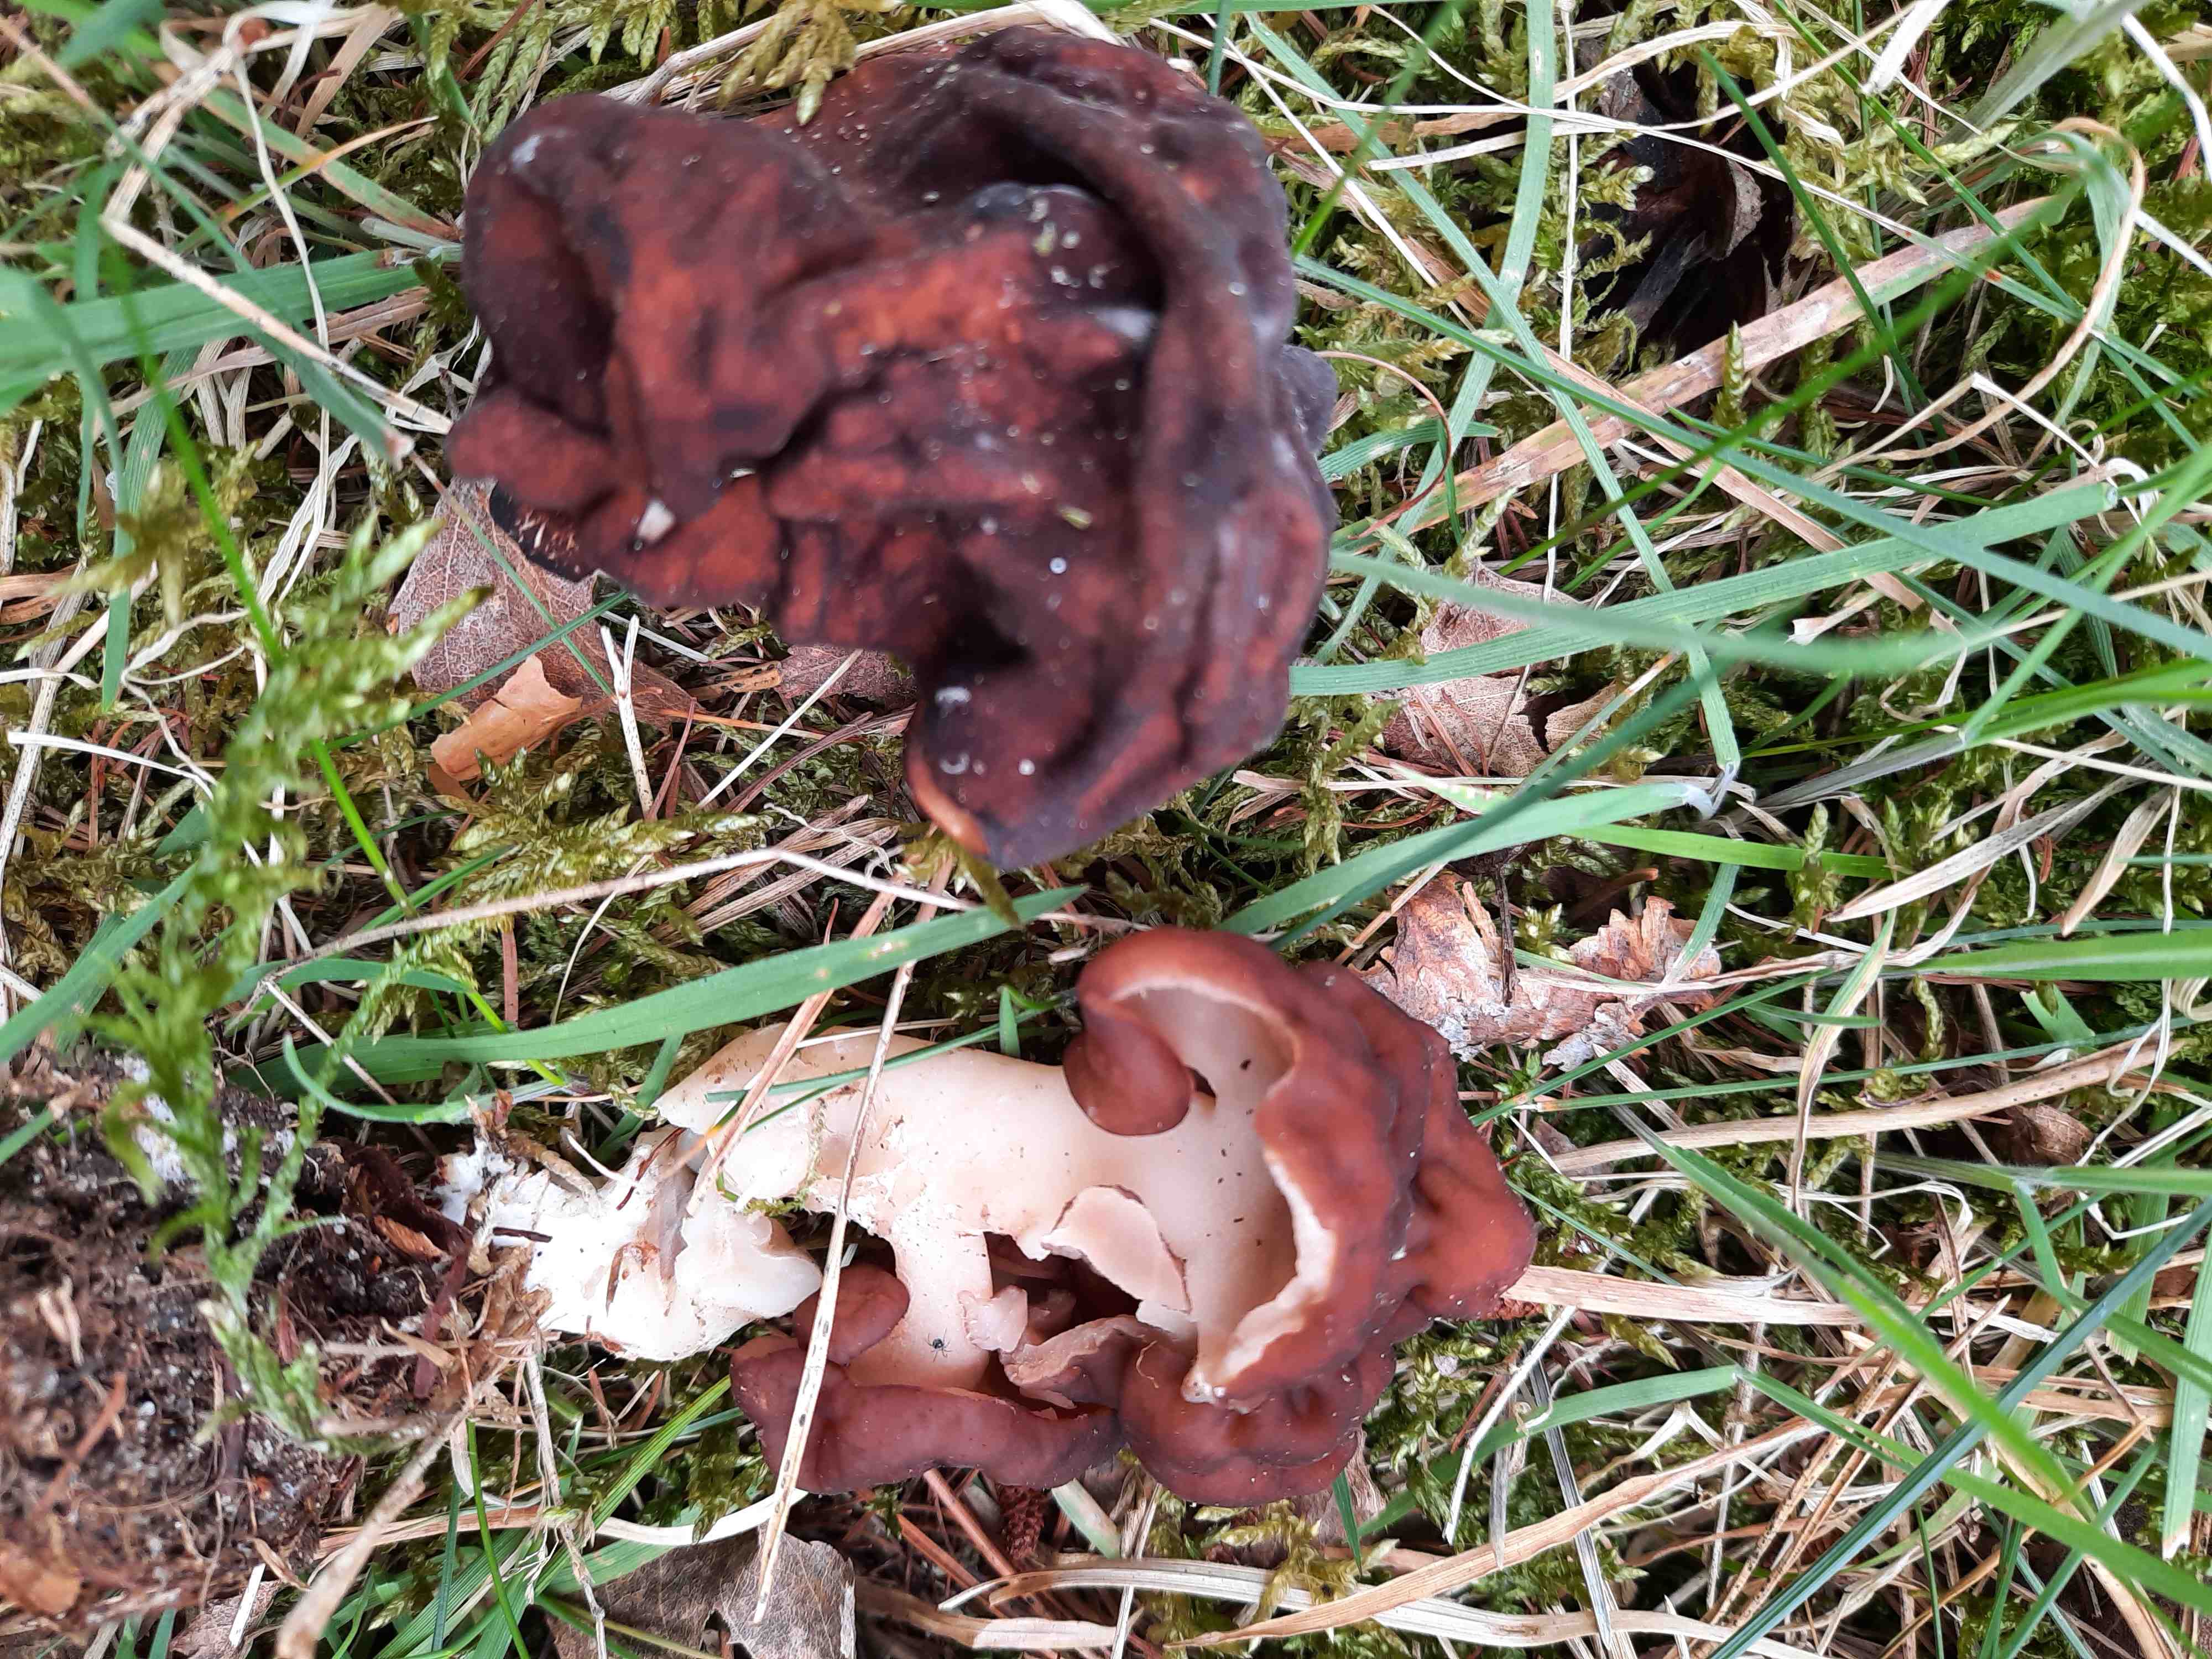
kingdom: Fungi
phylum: Ascomycota
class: Pezizomycetes
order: Pezizales
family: Discinaceae
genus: Gyromitra
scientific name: Gyromitra esculenta
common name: ægte stenmorkel
